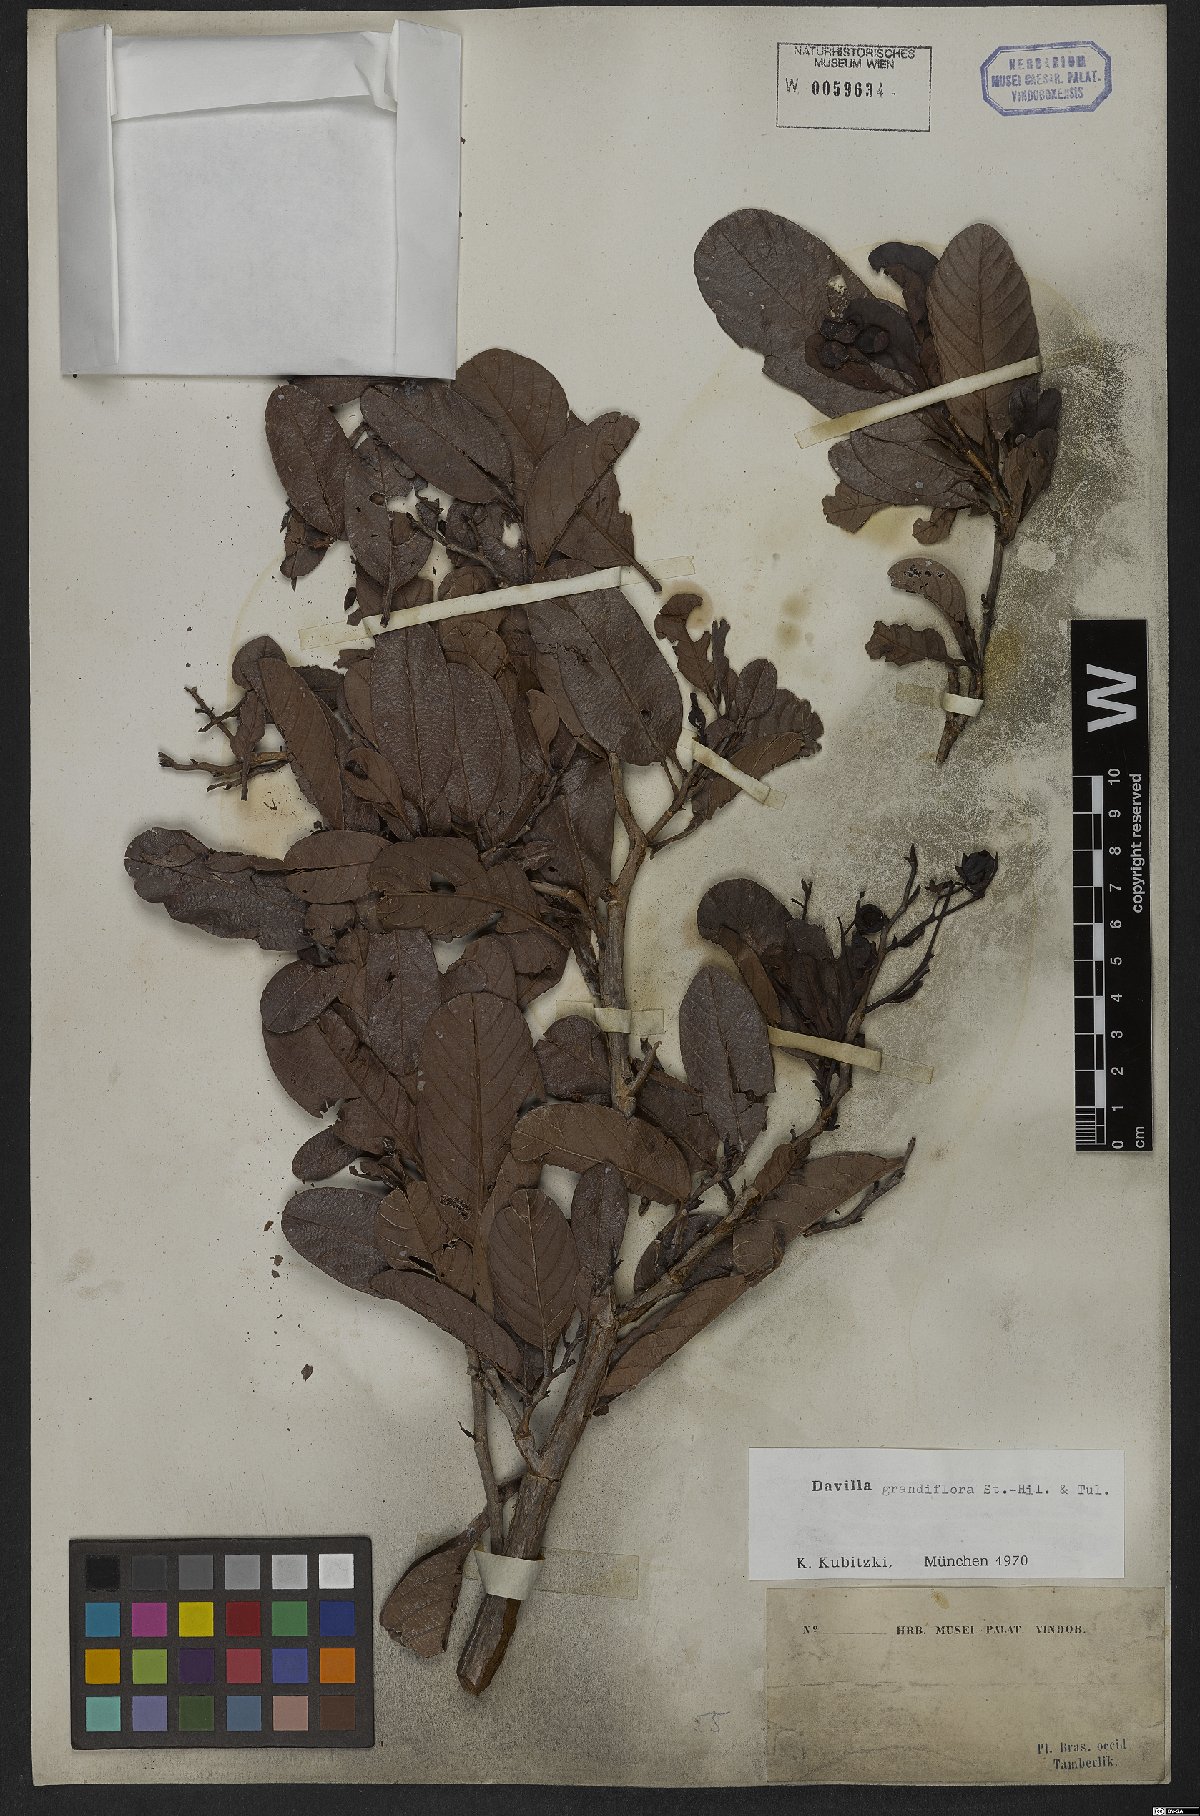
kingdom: Plantae
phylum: Tracheophyta
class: Magnoliopsida
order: Dilleniales
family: Dilleniaceae
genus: Davilla
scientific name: Davilla grandiflora
